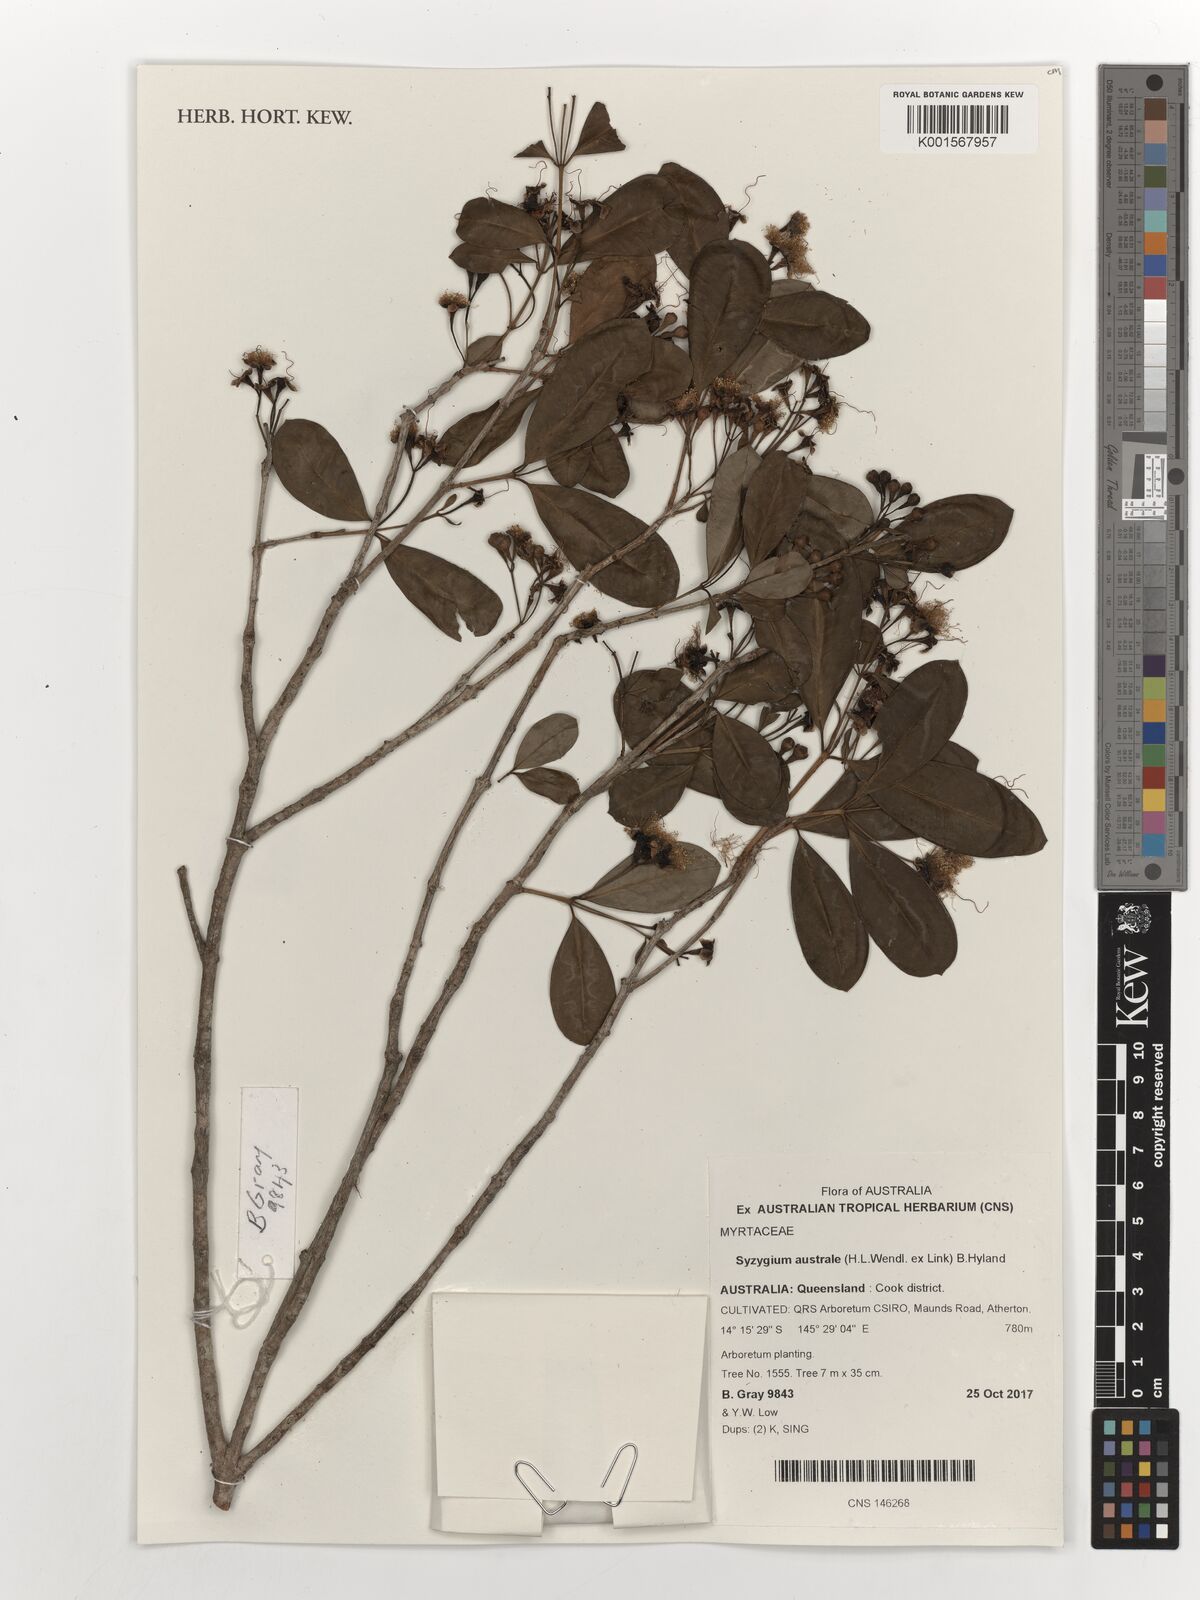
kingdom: Plantae
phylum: Tracheophyta
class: Magnoliopsida
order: Myrtales
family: Myrtaceae
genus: Syzygium
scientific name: Syzygium australe
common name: Australian brush-cherry
